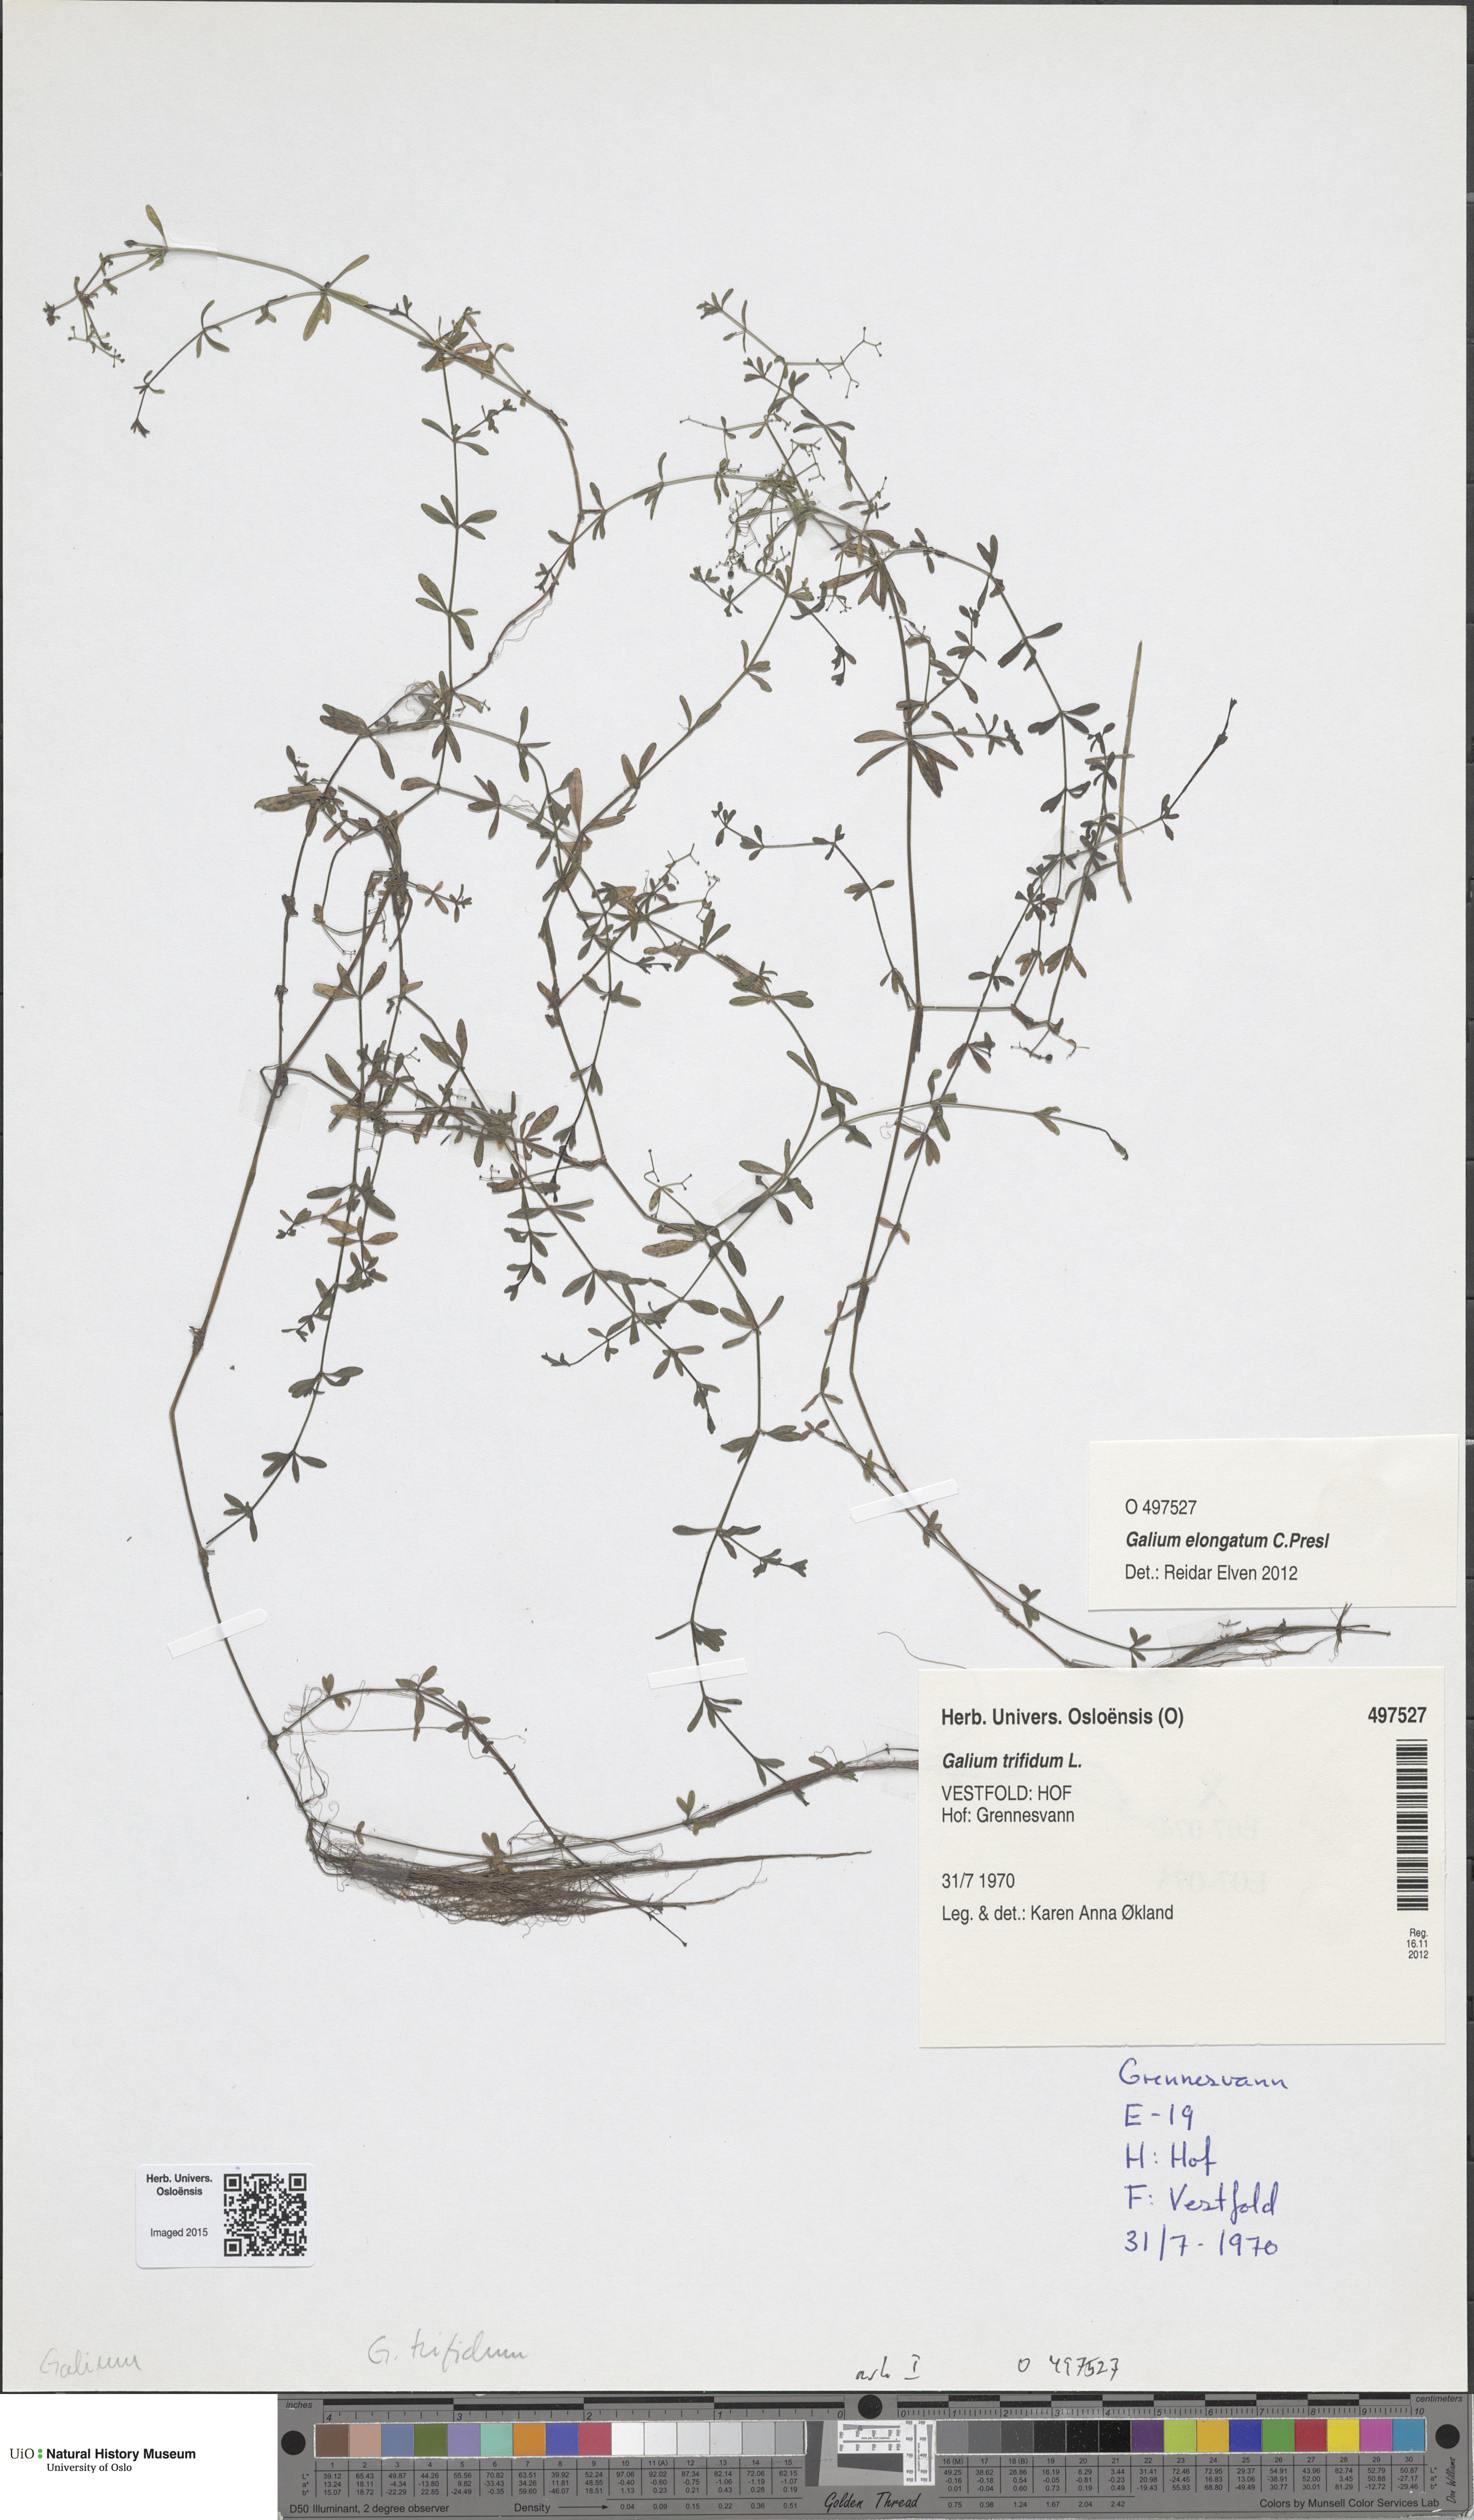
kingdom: Plantae
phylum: Tracheophyta
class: Magnoliopsida
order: Gentianales
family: Rubiaceae
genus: Galium
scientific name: Galium trifidum
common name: Small bedstraw
